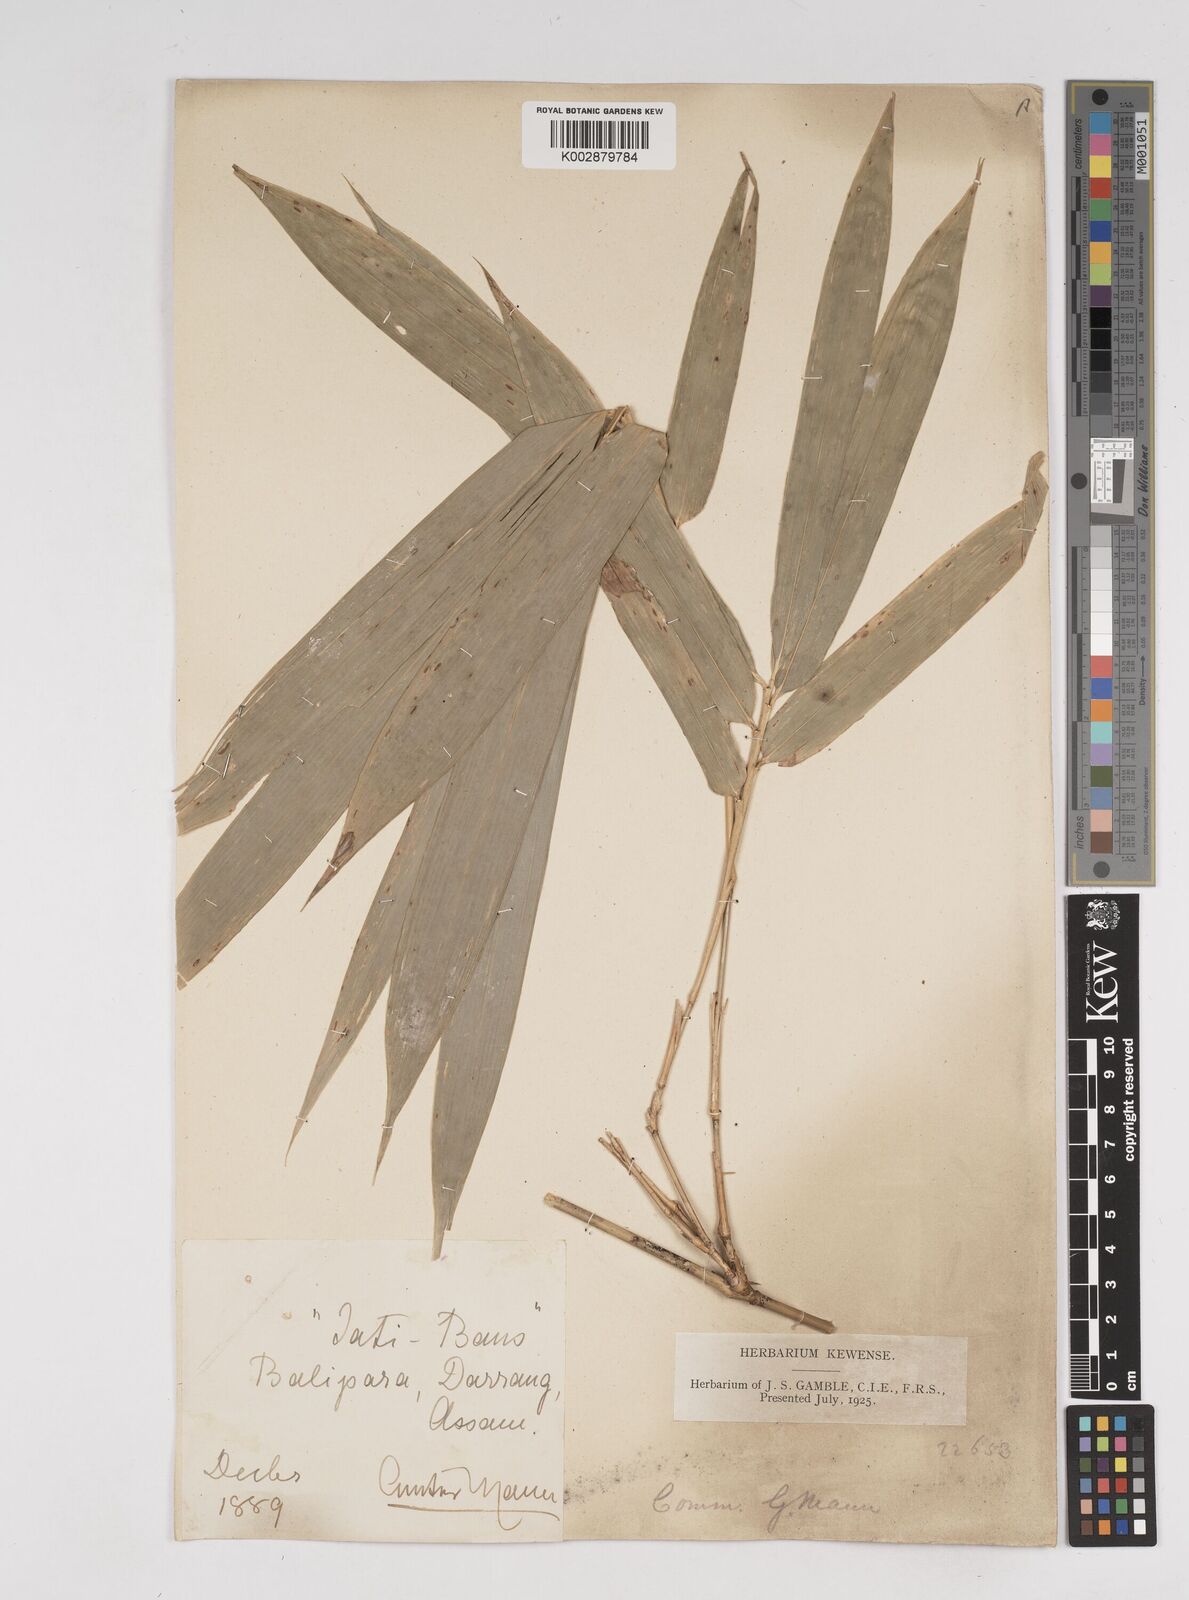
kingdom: Plantae
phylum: Tracheophyta
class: Liliopsida
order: Poales
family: Poaceae
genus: Gigantochloa
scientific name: Gigantochloa macrostachya
